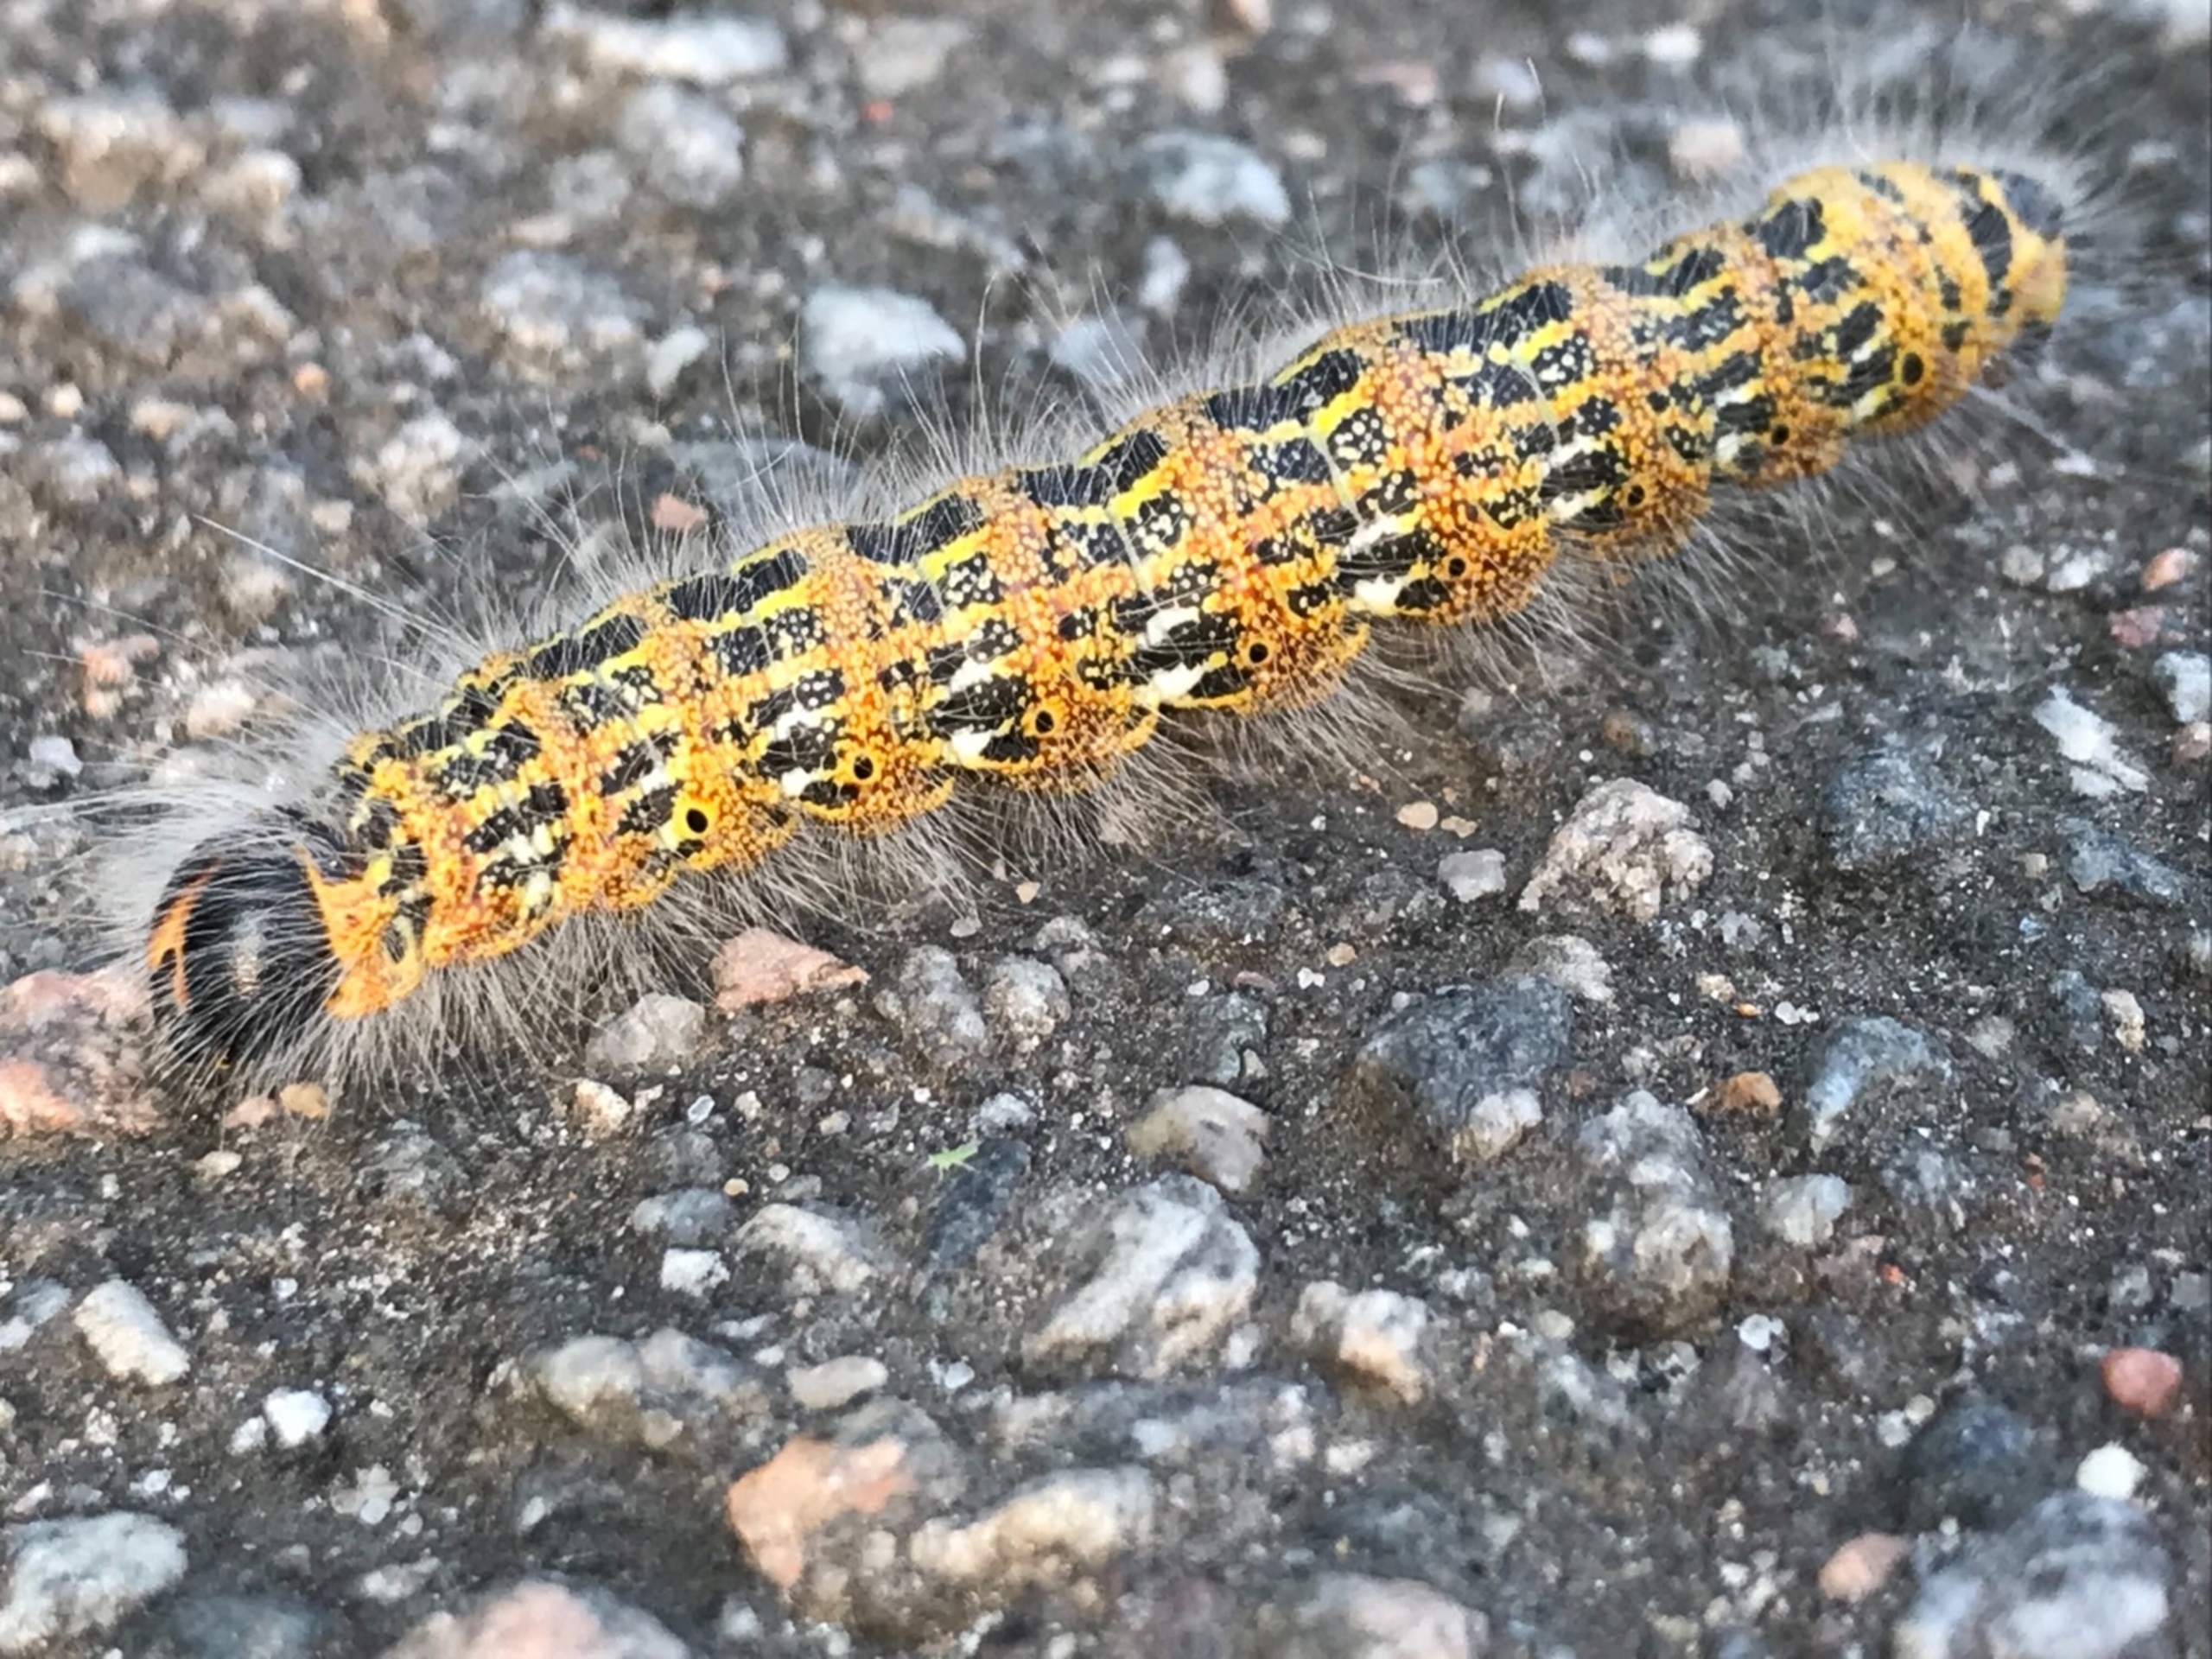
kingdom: Animalia
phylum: Arthropoda
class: Insecta
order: Lepidoptera
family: Notodontidae
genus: Phalera
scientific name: Phalera bucephala
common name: Måneplet
